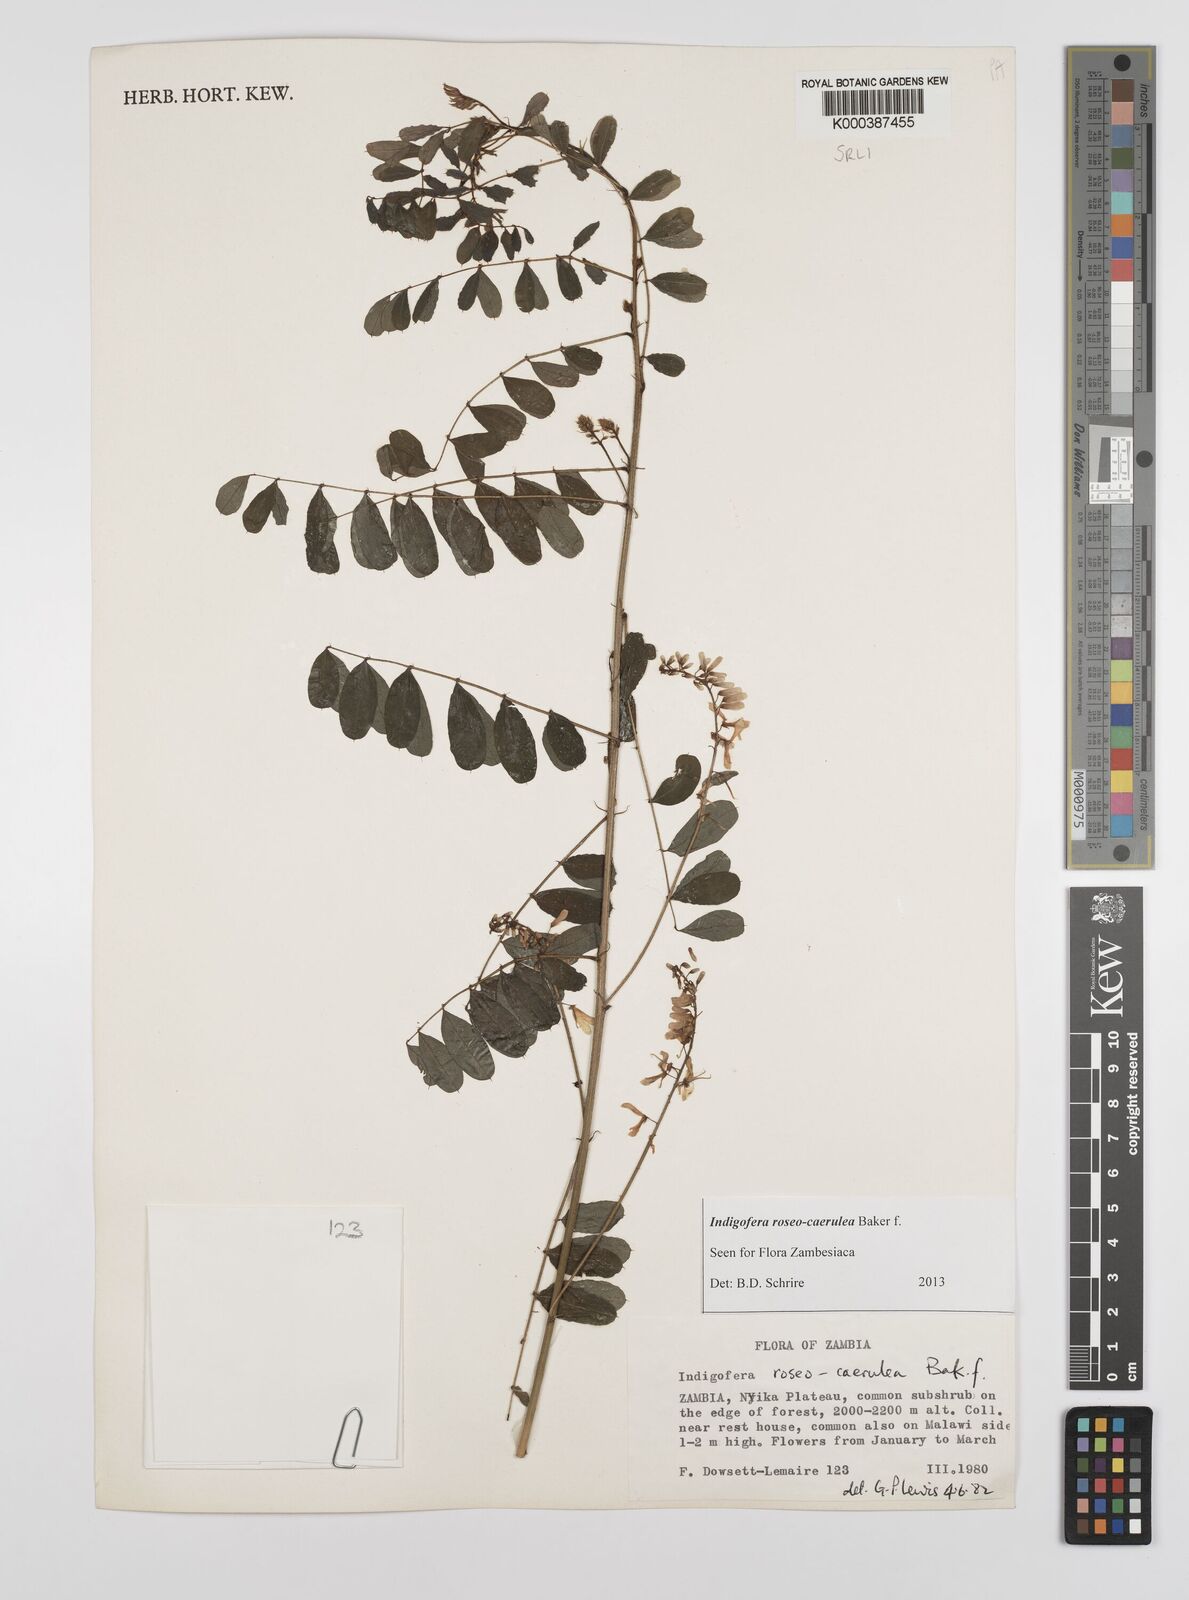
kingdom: Plantae
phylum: Tracheophyta
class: Magnoliopsida
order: Fabales
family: Fabaceae
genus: Indigofera
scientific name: Indigofera roseocaerulea
